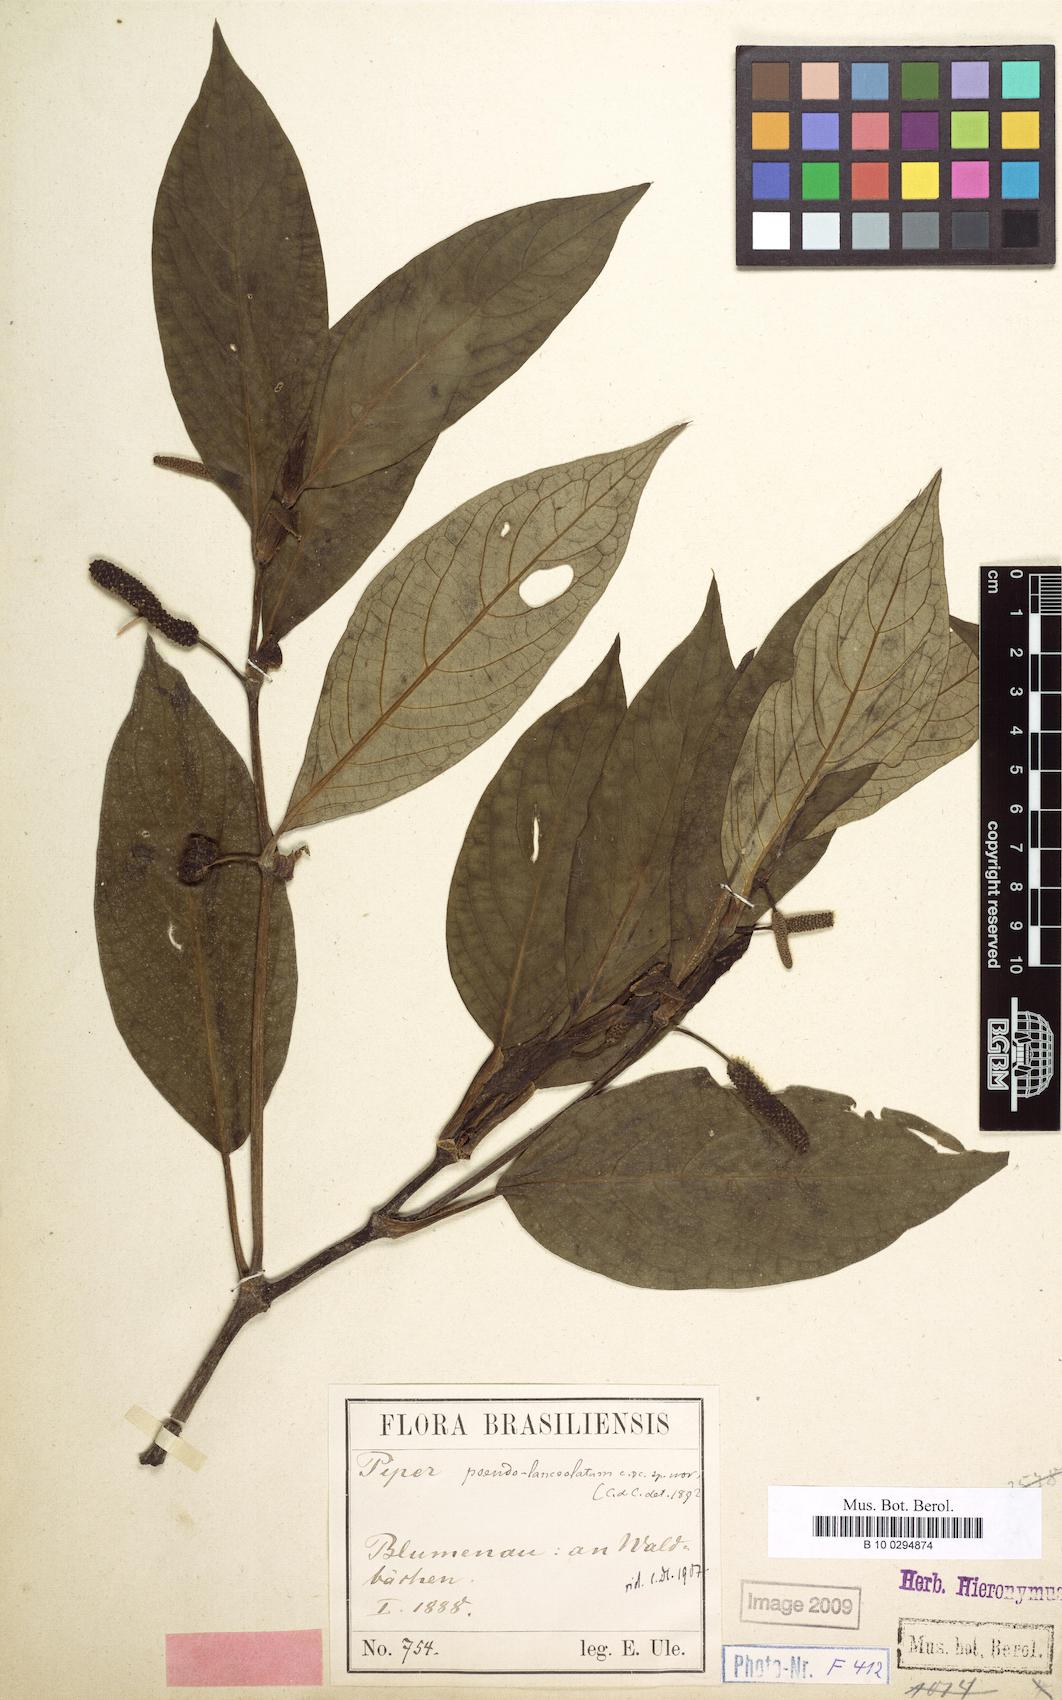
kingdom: Plantae
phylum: Tracheophyta
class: Magnoliopsida
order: Piperales
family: Piperaceae
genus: Piper
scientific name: Piper caldense
